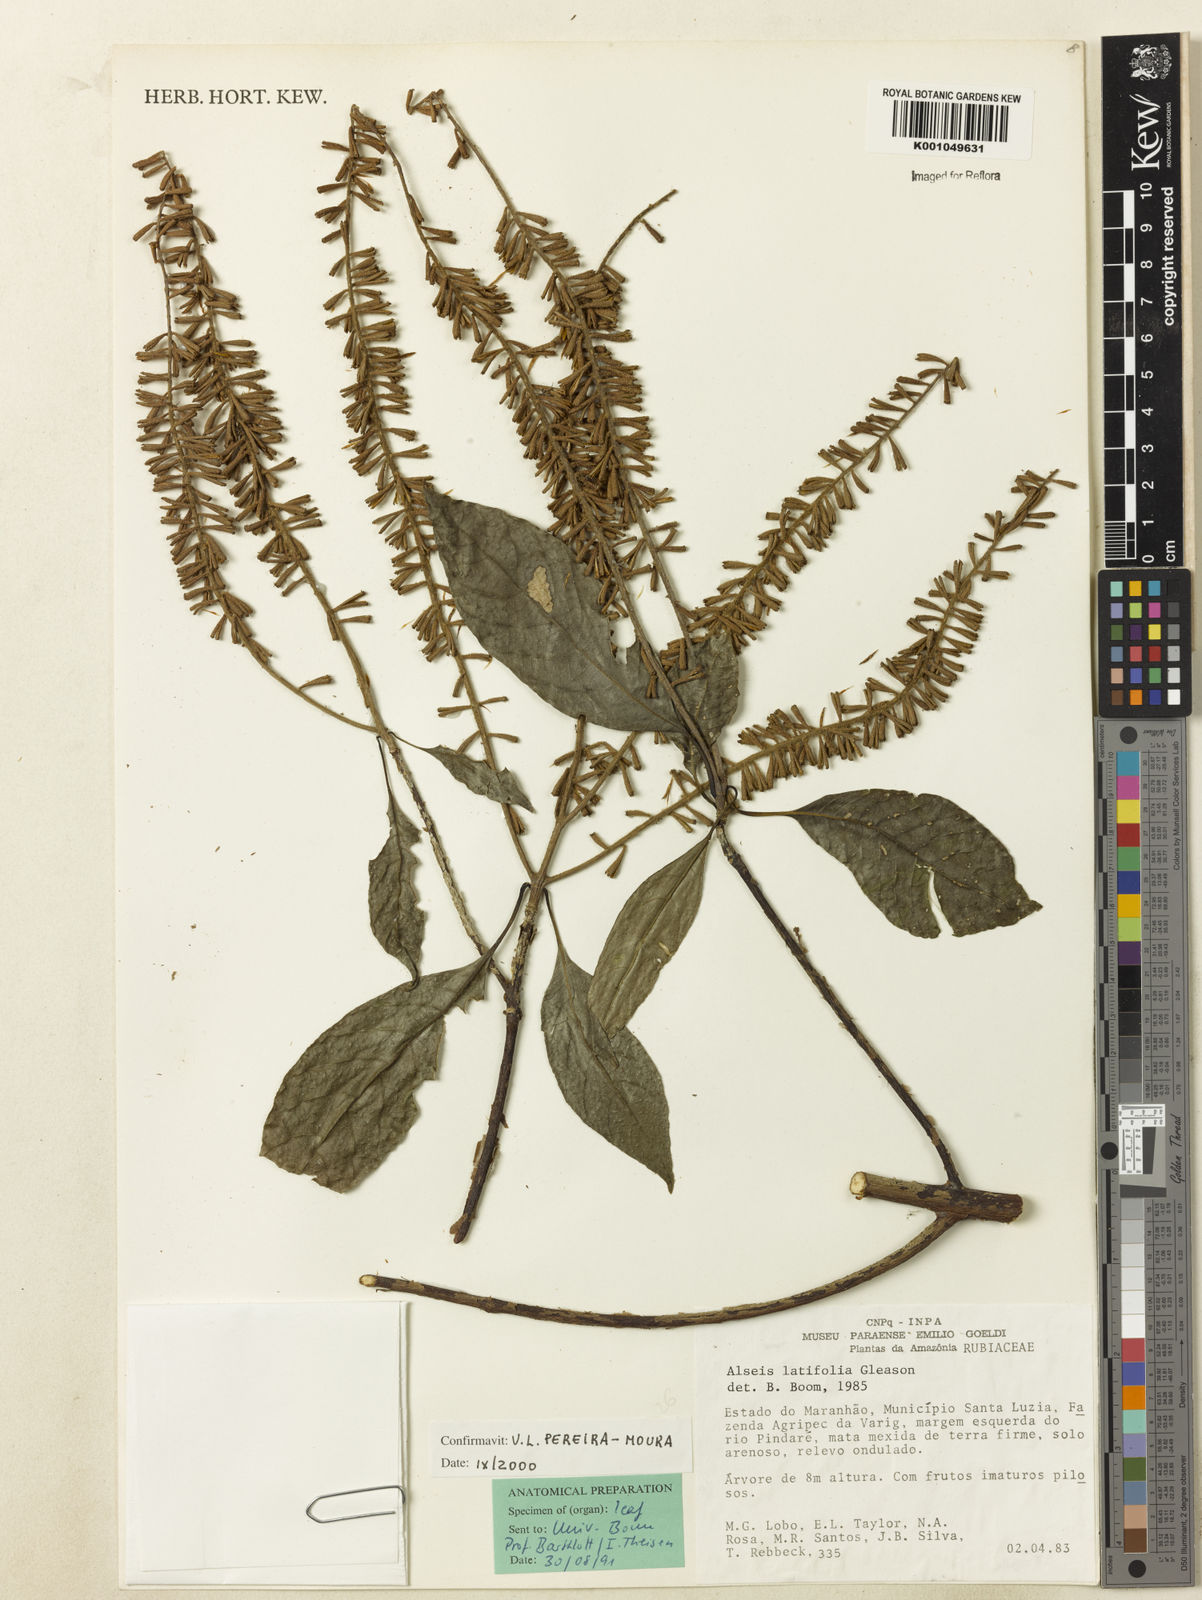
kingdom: Plantae
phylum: Tracheophyta
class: Magnoliopsida
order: Gentianales
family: Rubiaceae
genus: Alseis
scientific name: Alseis latifolia
